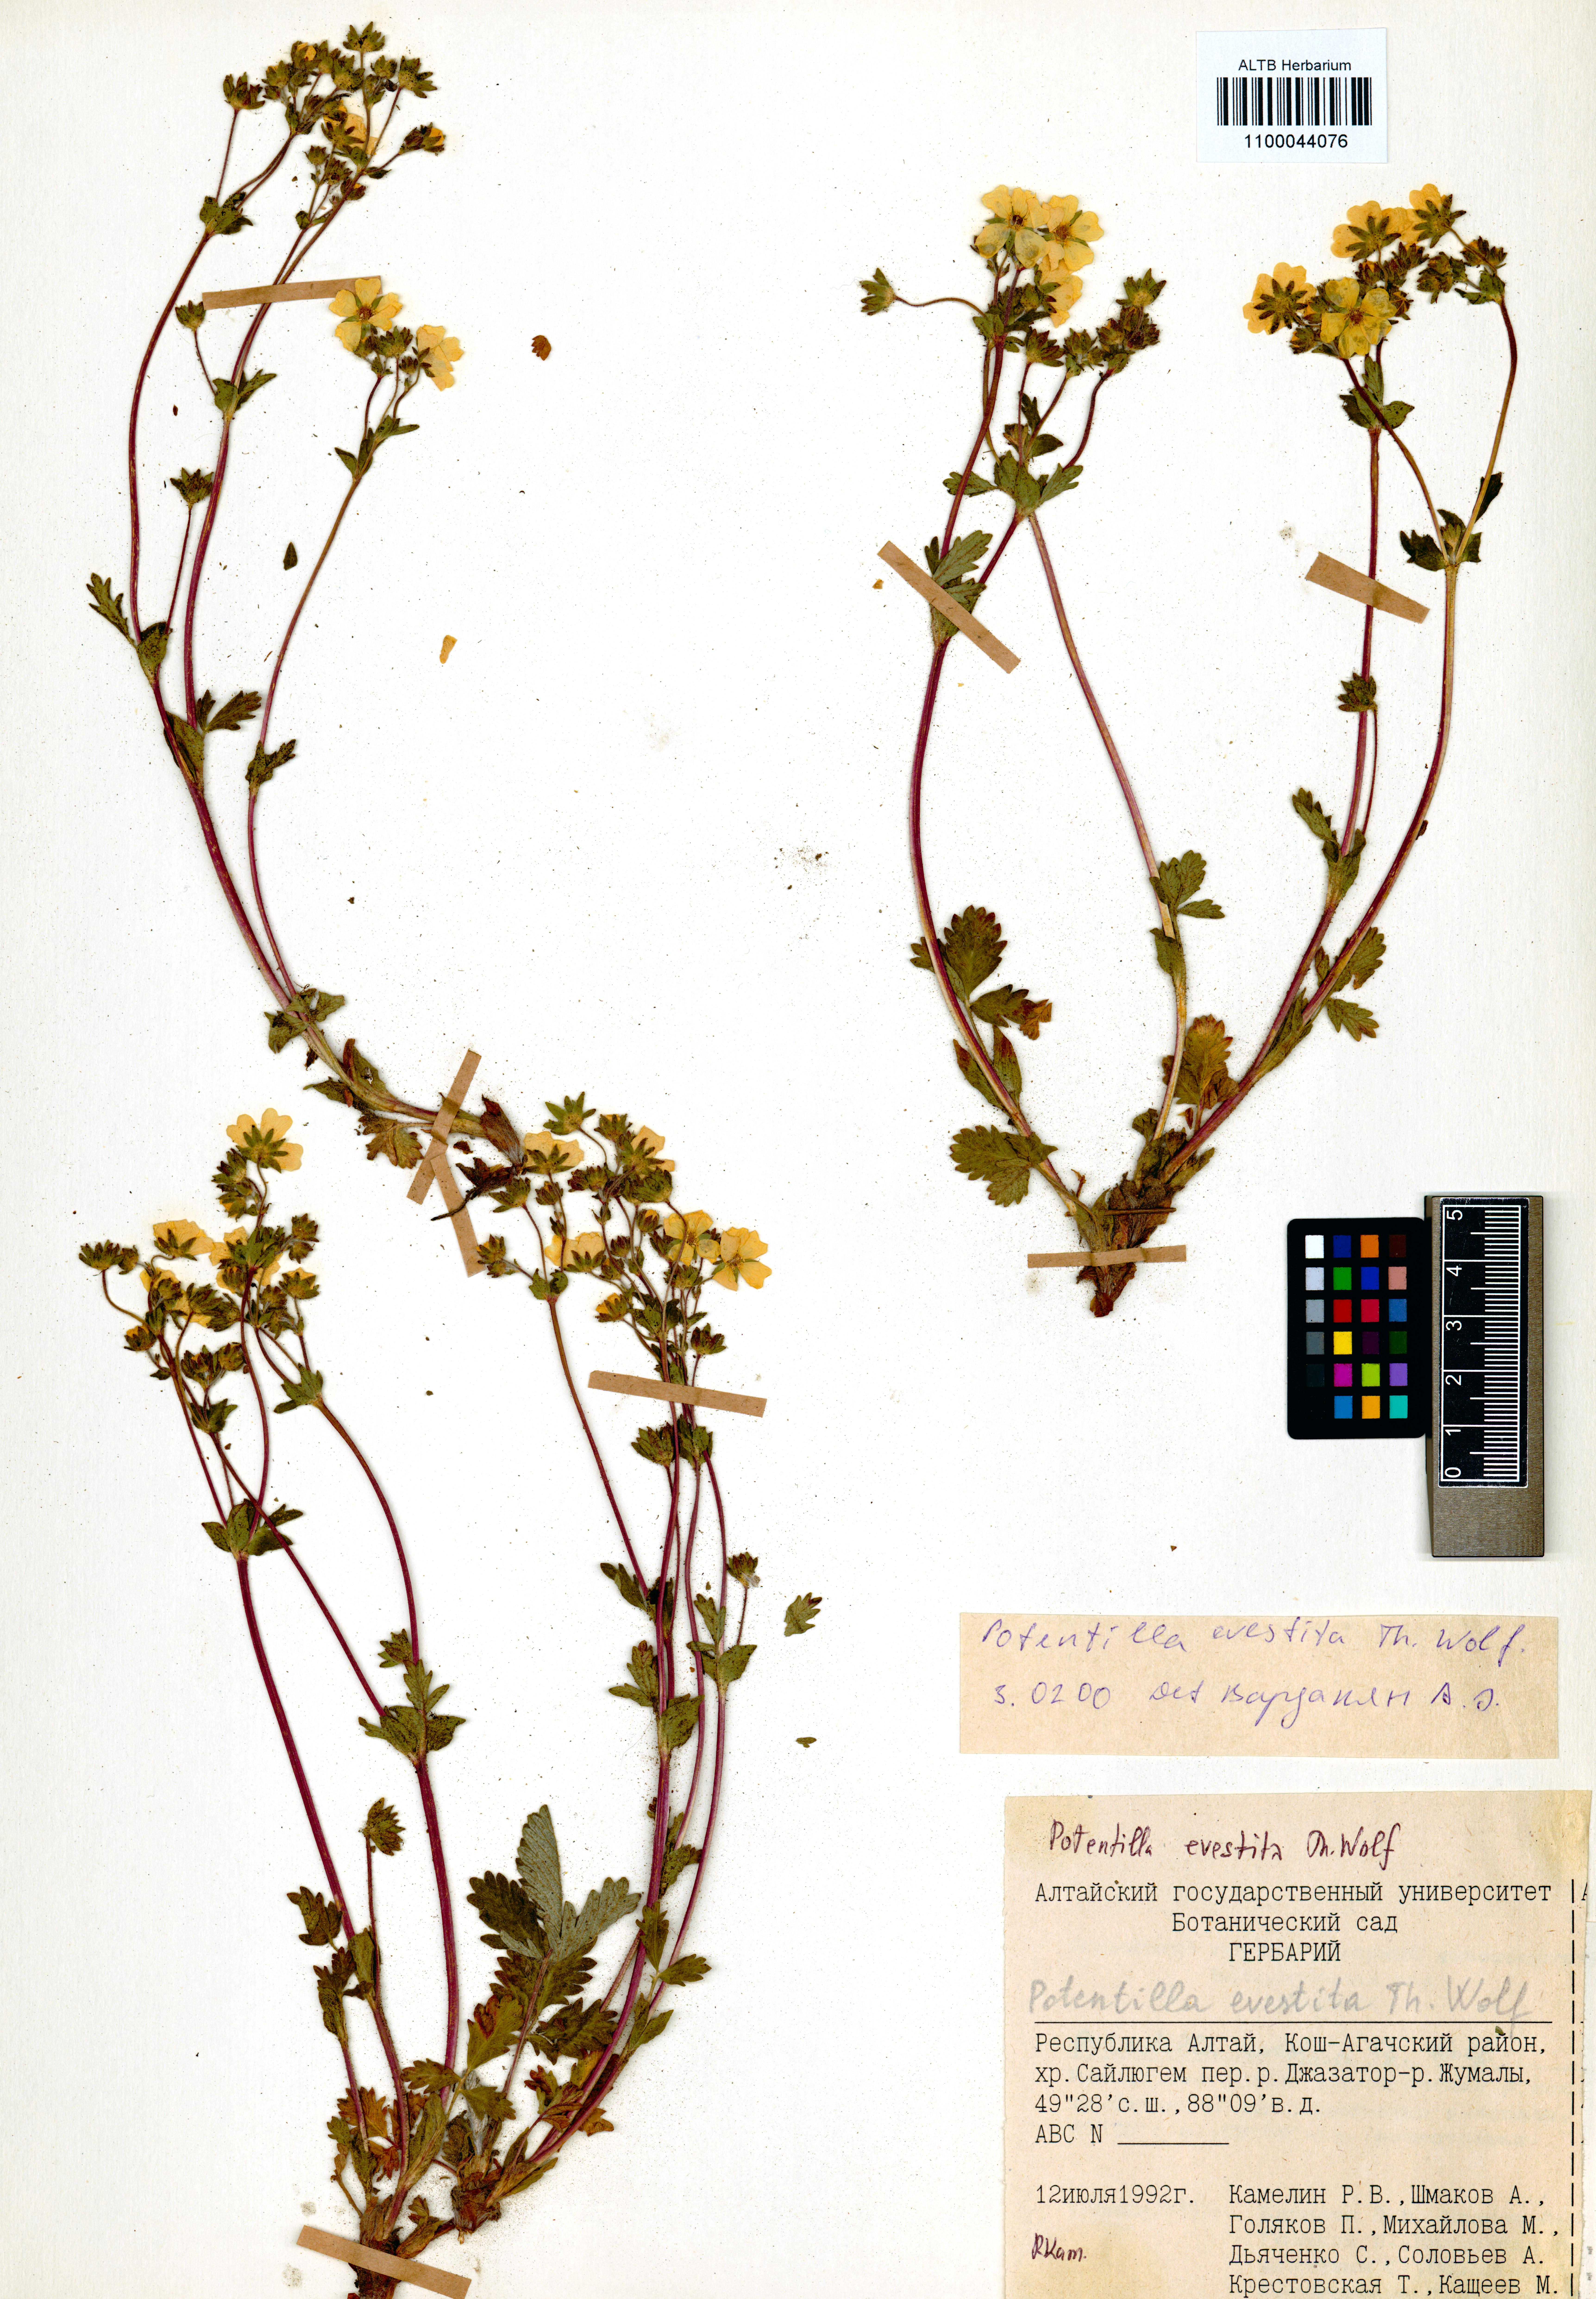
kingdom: Plantae
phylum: Tracheophyta
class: Magnoliopsida
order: Rosales
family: Rosaceae
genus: Potentilla
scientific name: Potentilla evestita
